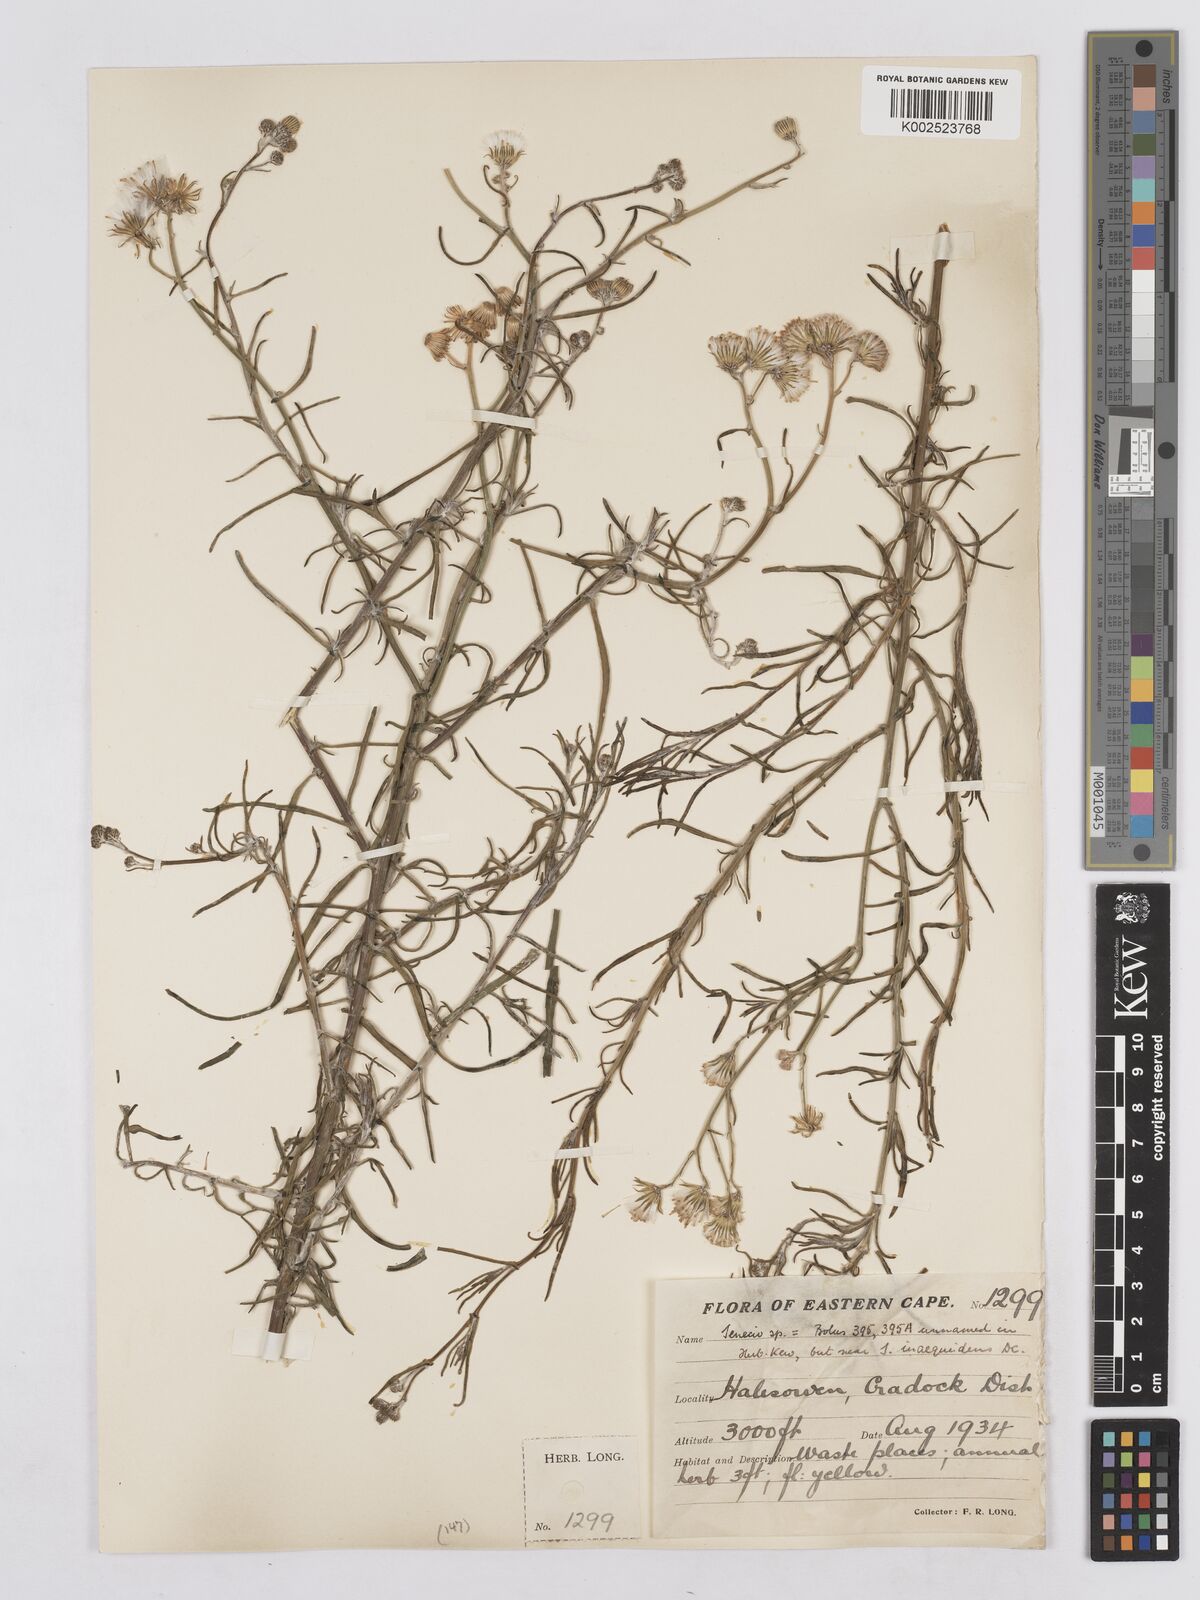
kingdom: Plantae
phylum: Tracheophyta
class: Magnoliopsida
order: Asterales
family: Asteraceae
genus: Senecio
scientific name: Senecio vimineus
